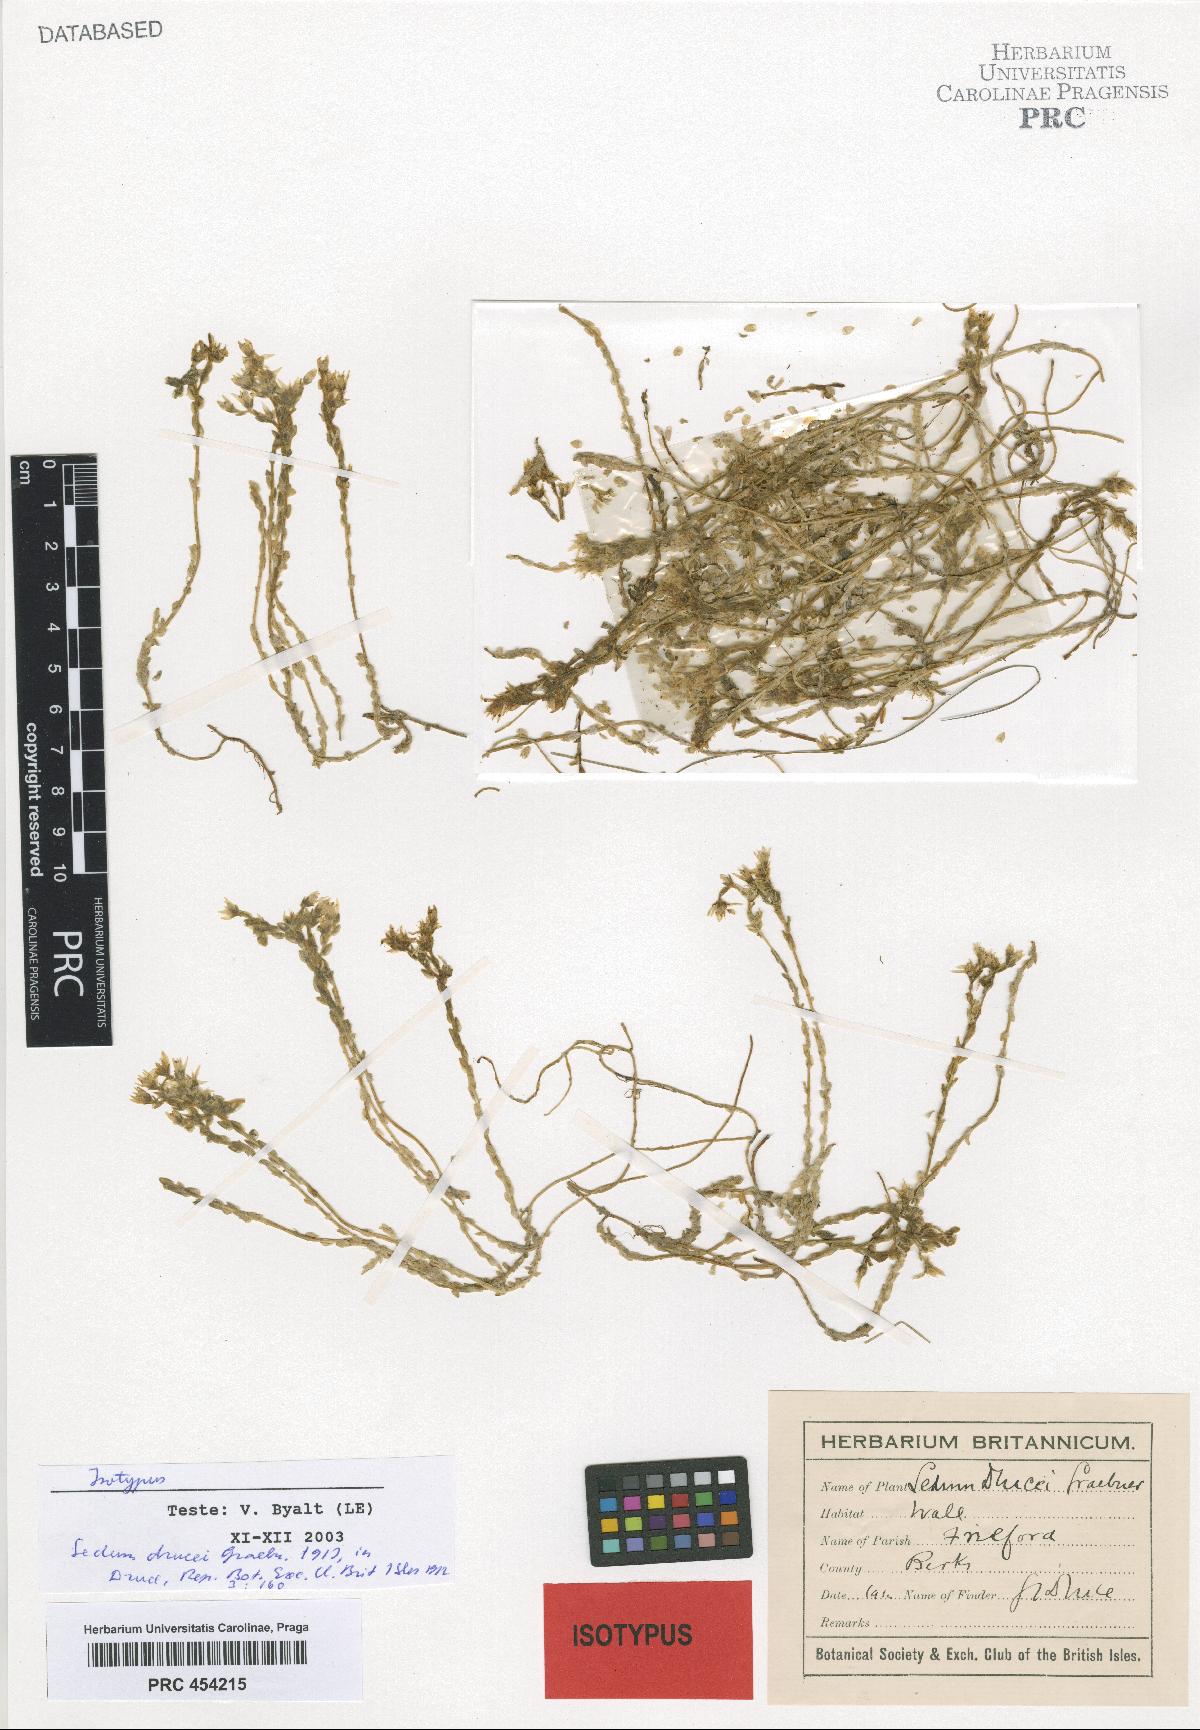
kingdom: Plantae
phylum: Tracheophyta
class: Magnoliopsida
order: Saxifragales
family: Crassulaceae
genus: Sedum
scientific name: Sedum acre
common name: Biting stonecrop
